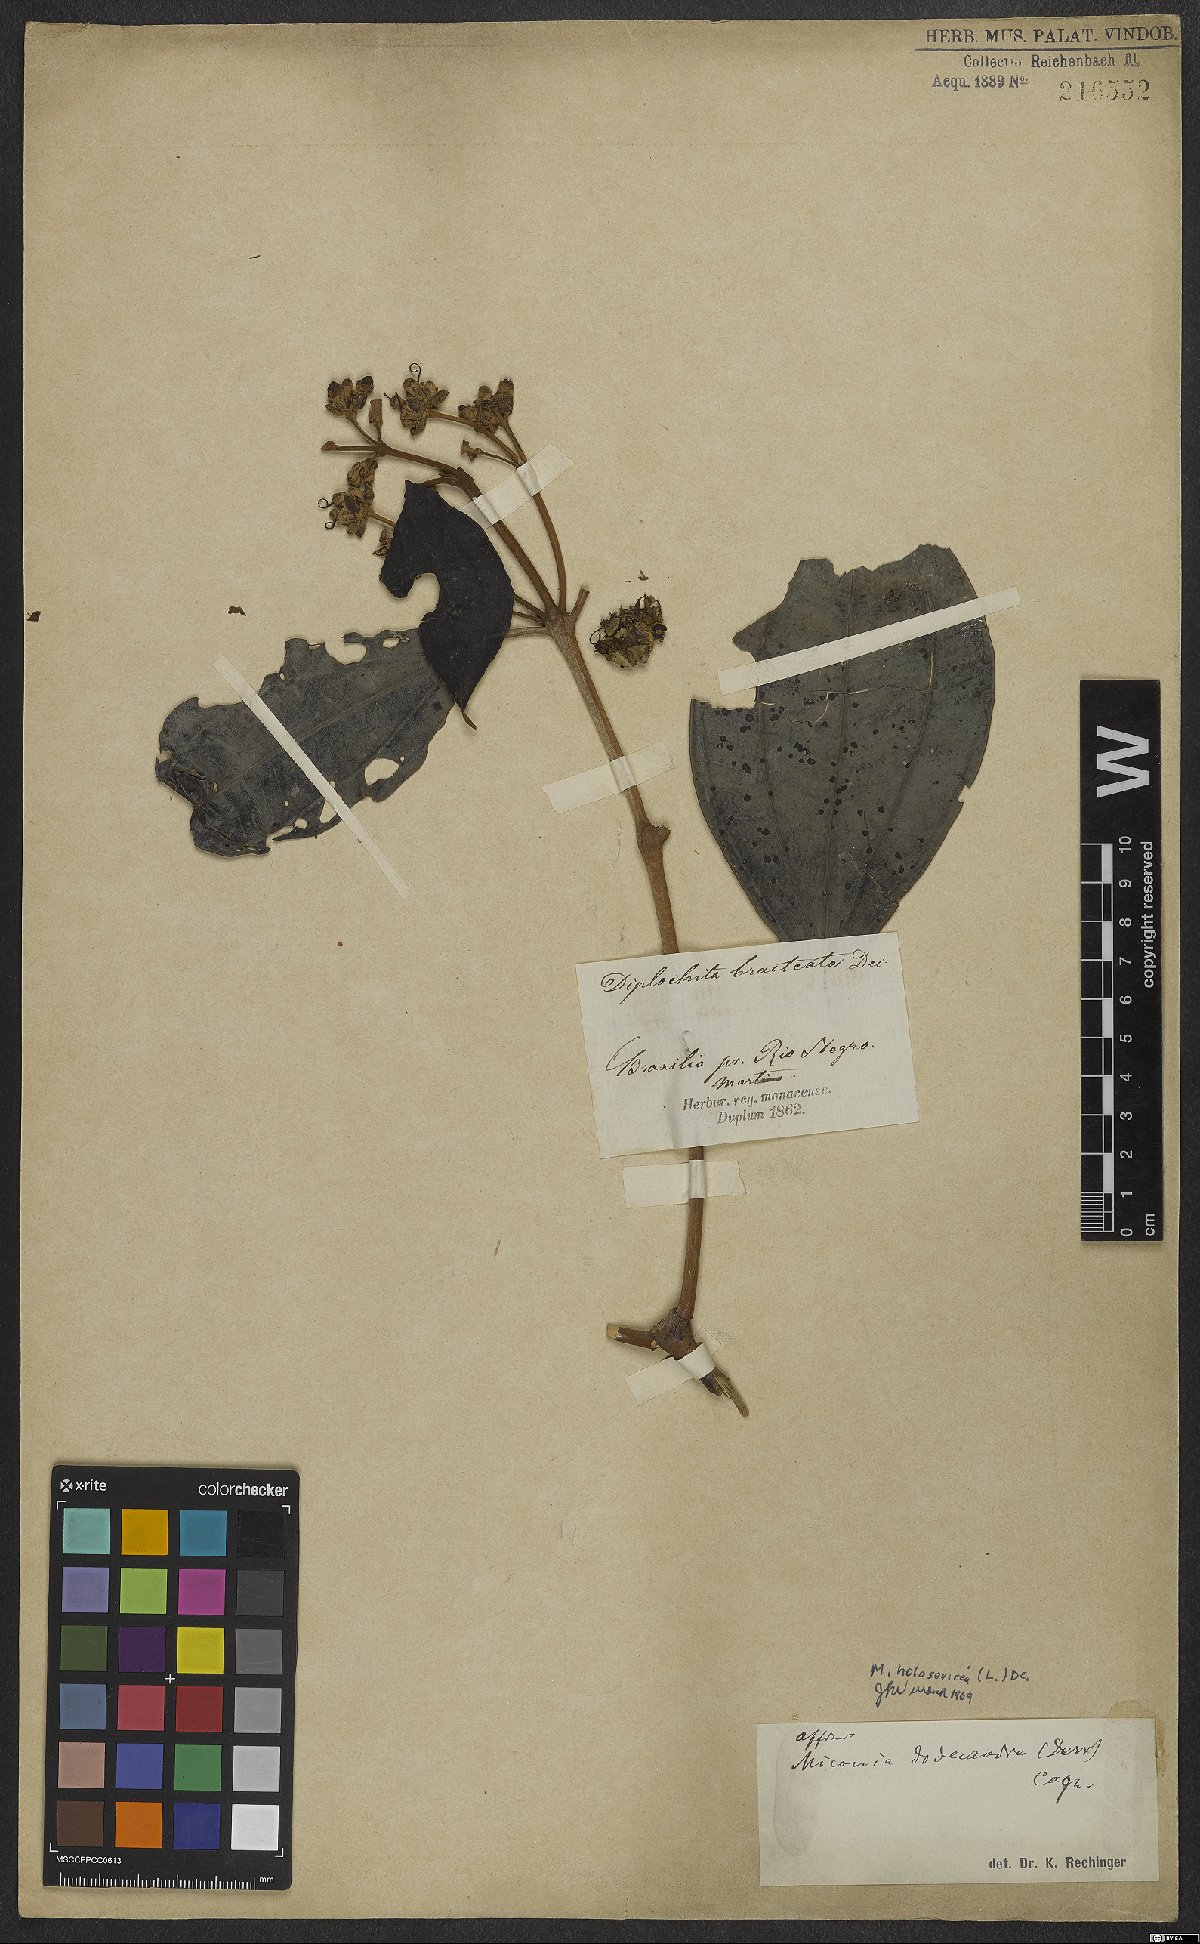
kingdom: Plantae
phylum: Tracheophyta
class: Magnoliopsida
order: Myrtales
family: Melastomataceae
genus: Miconia
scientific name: Miconia holosericea
